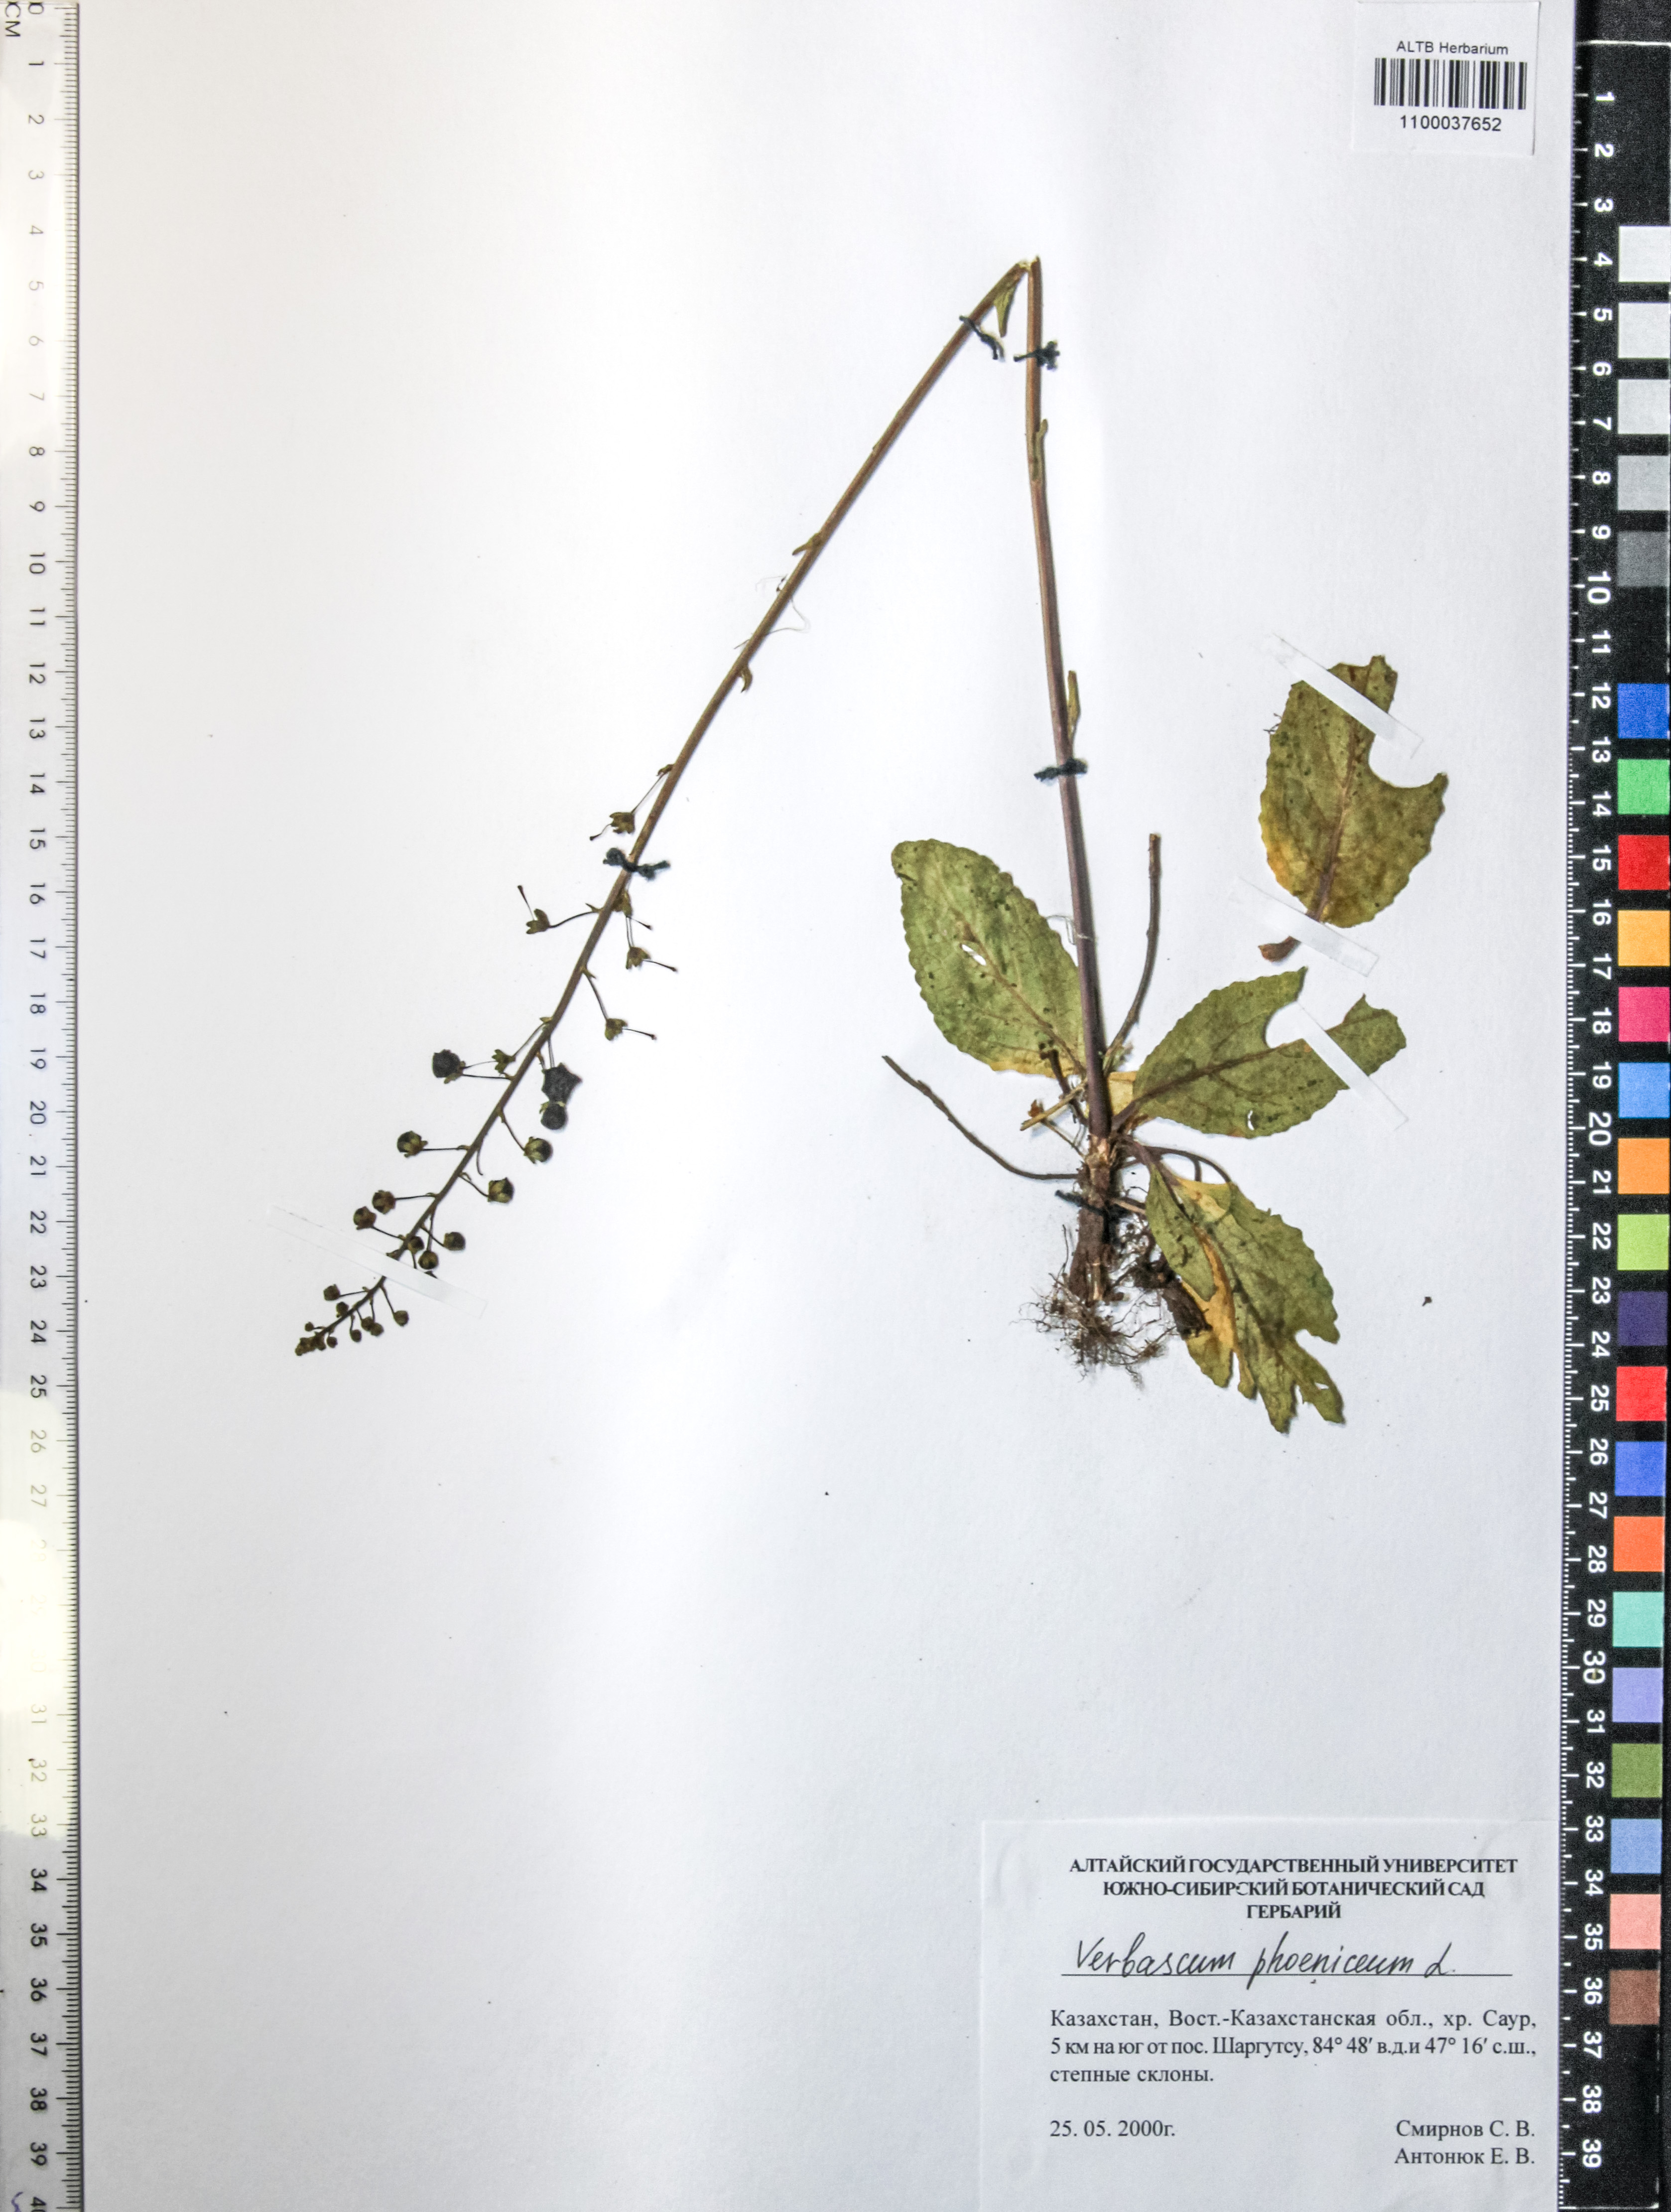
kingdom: Plantae
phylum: Tracheophyta
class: Magnoliopsida
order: Lamiales
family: Scrophulariaceae
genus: Verbascum
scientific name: Verbascum phoeniceum
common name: Purple mullein
